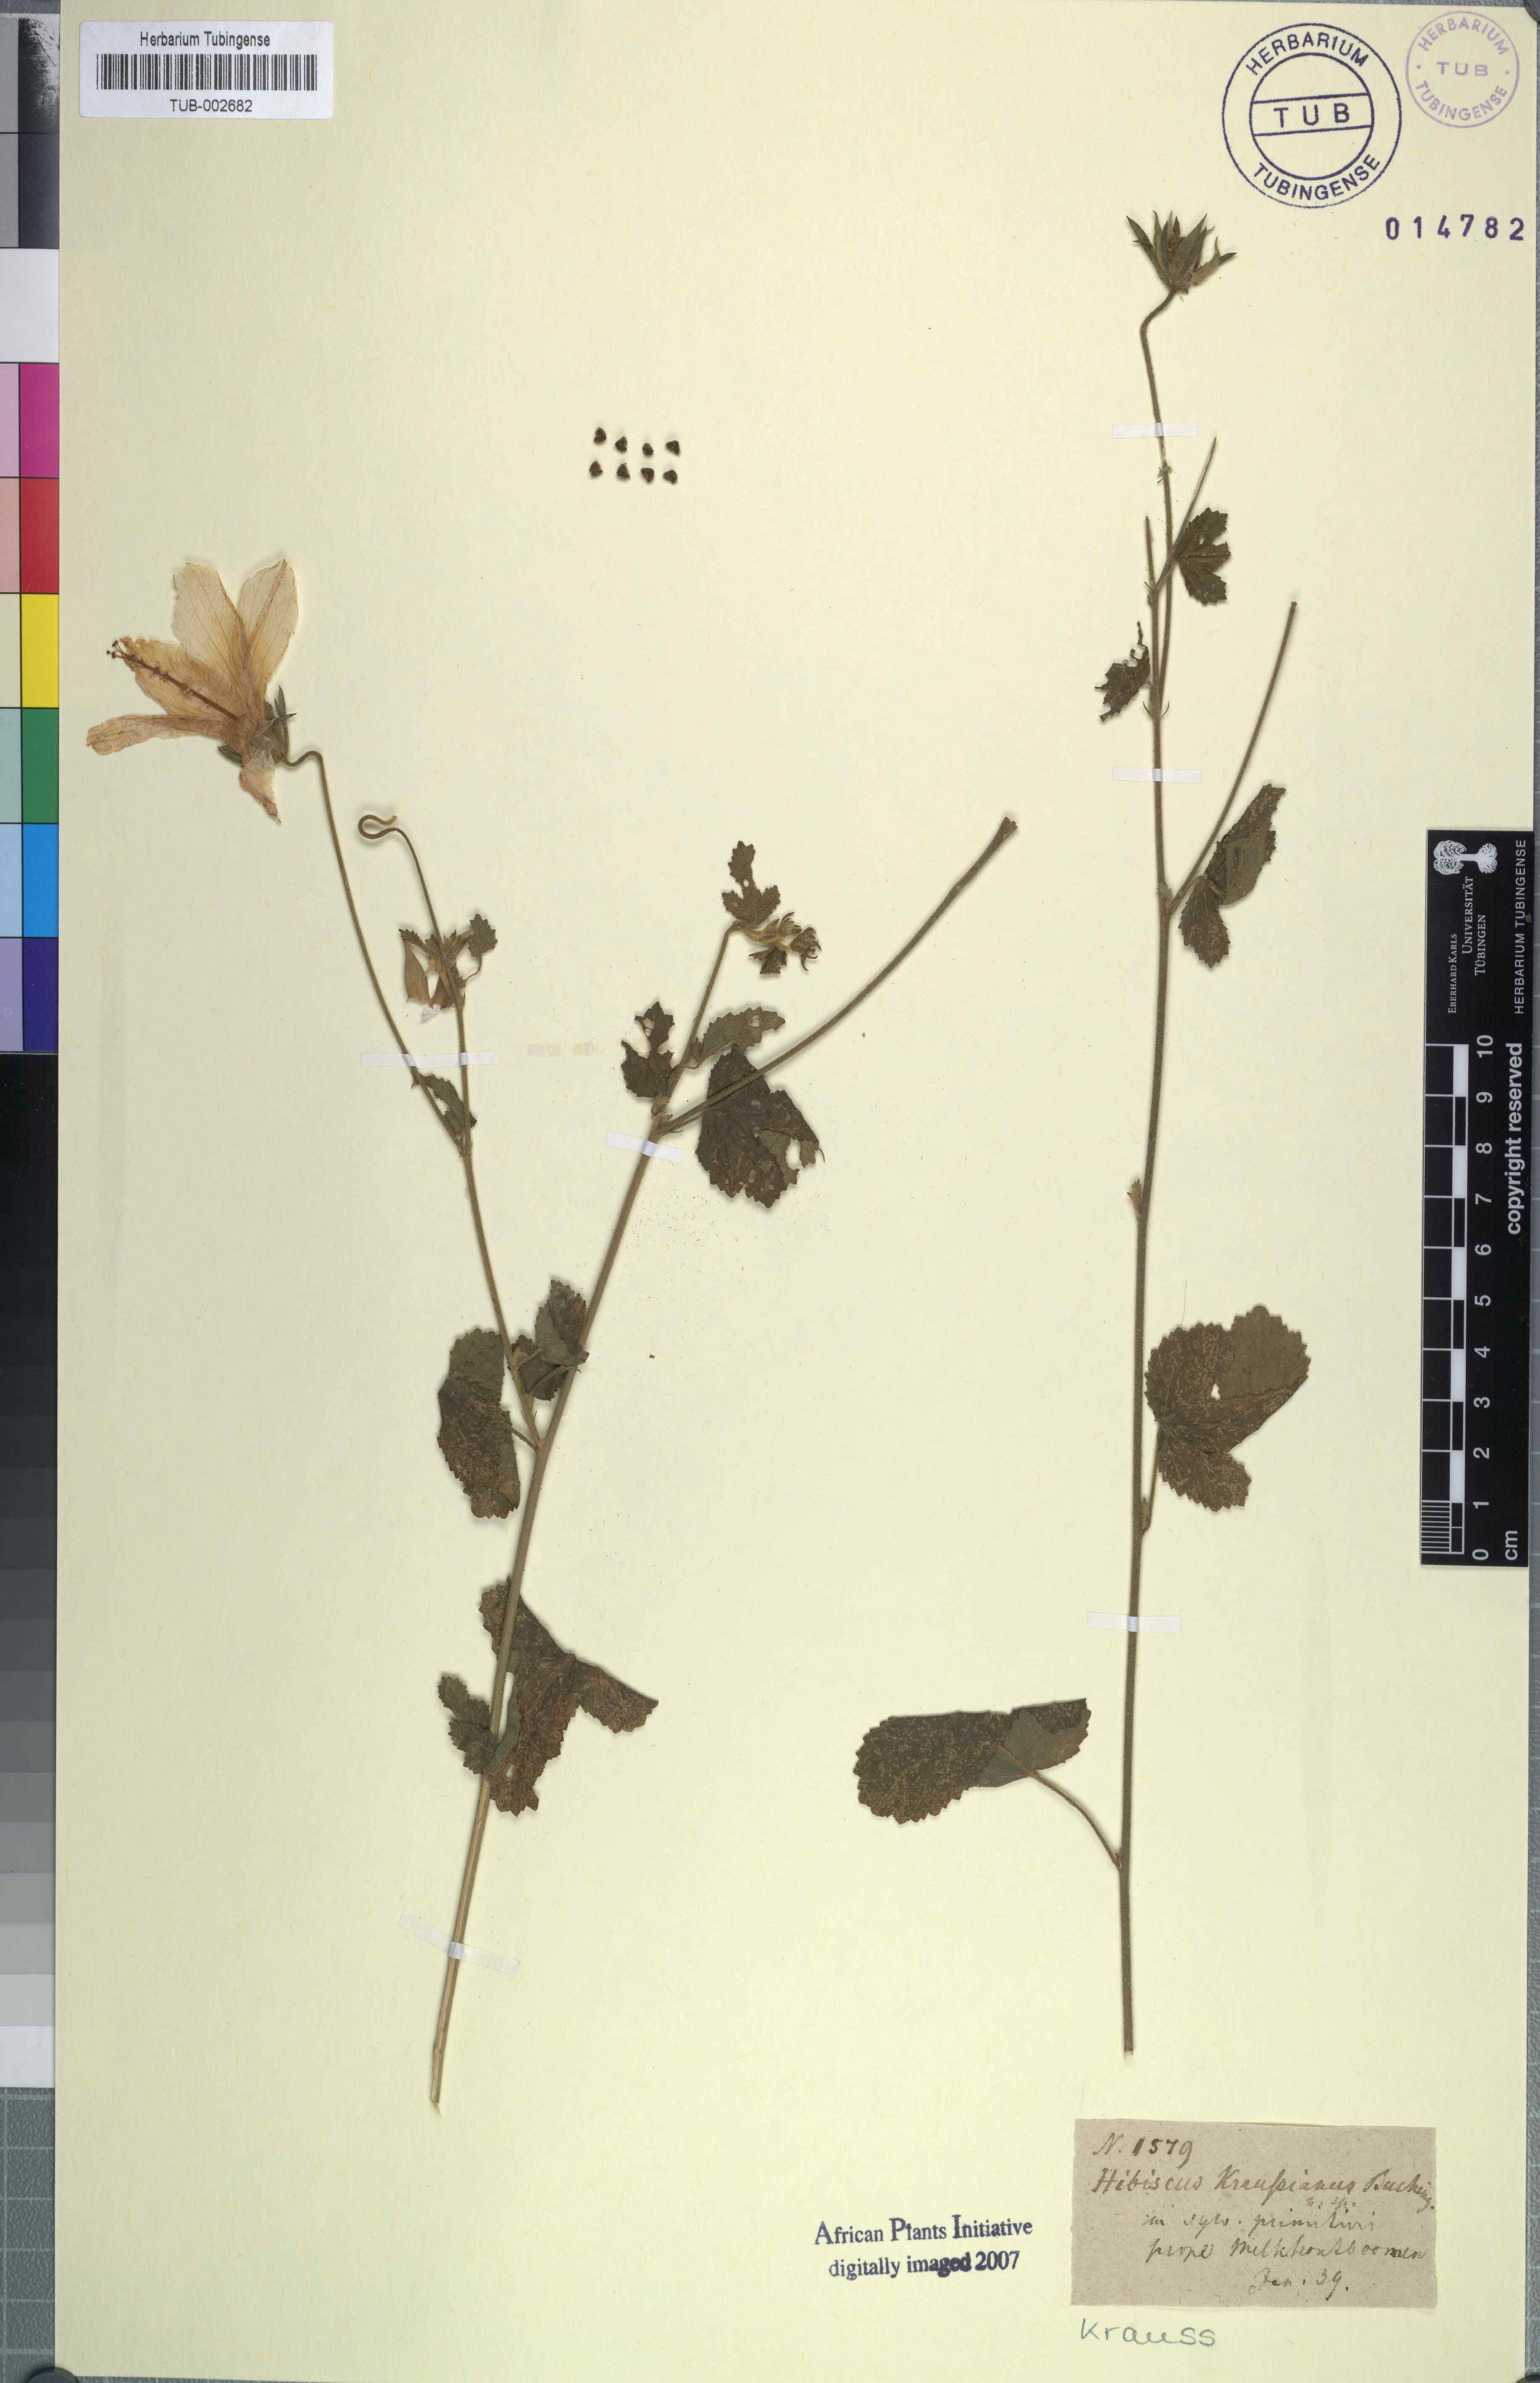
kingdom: Plantae
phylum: Tracheophyta
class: Magnoliopsida
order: Malvales
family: Malvaceae
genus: Hibiscus
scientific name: Hibiscus pedunculatus
